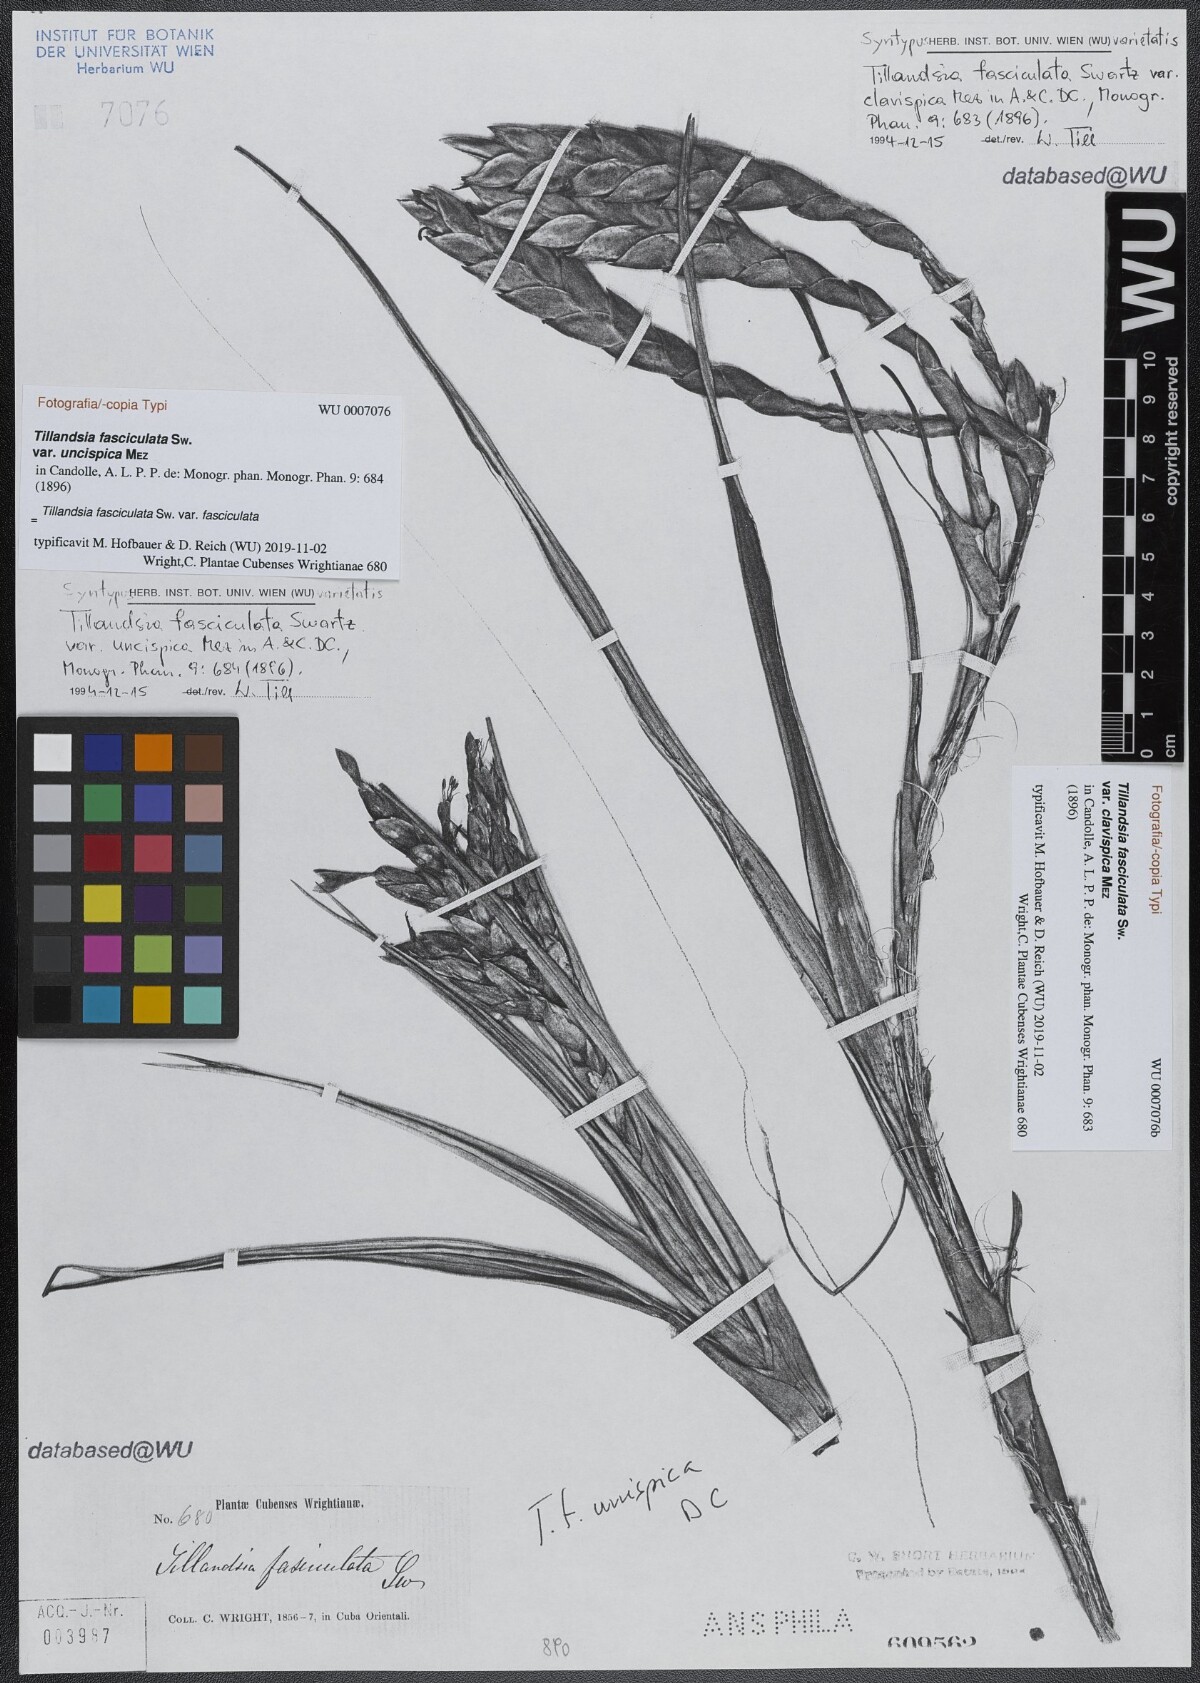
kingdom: Plantae
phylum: Tracheophyta
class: Liliopsida
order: Poales
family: Bromeliaceae
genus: Tillandsia
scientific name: Tillandsia fasciculata
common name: Giant airplant
